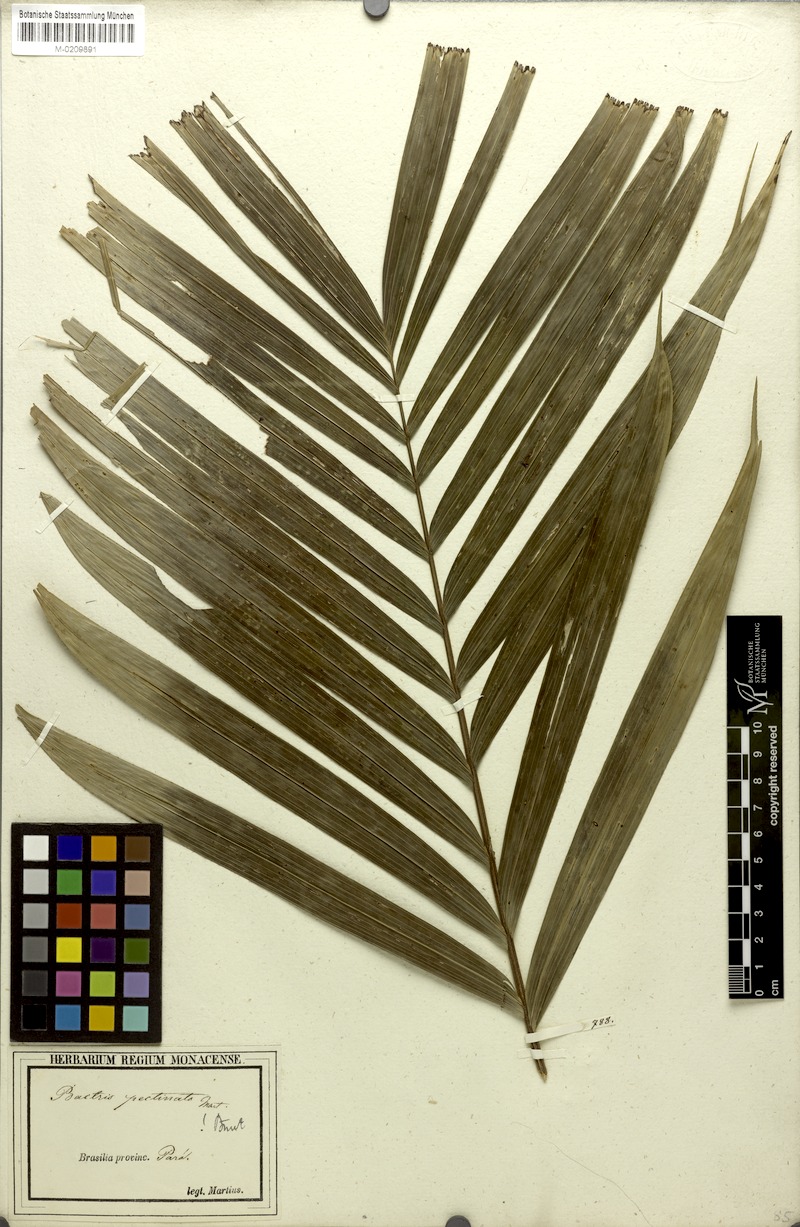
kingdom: Plantae
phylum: Tracheophyta
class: Liliopsida
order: Arecales
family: Arecaceae
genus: Bactris
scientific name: Bactris hirta
